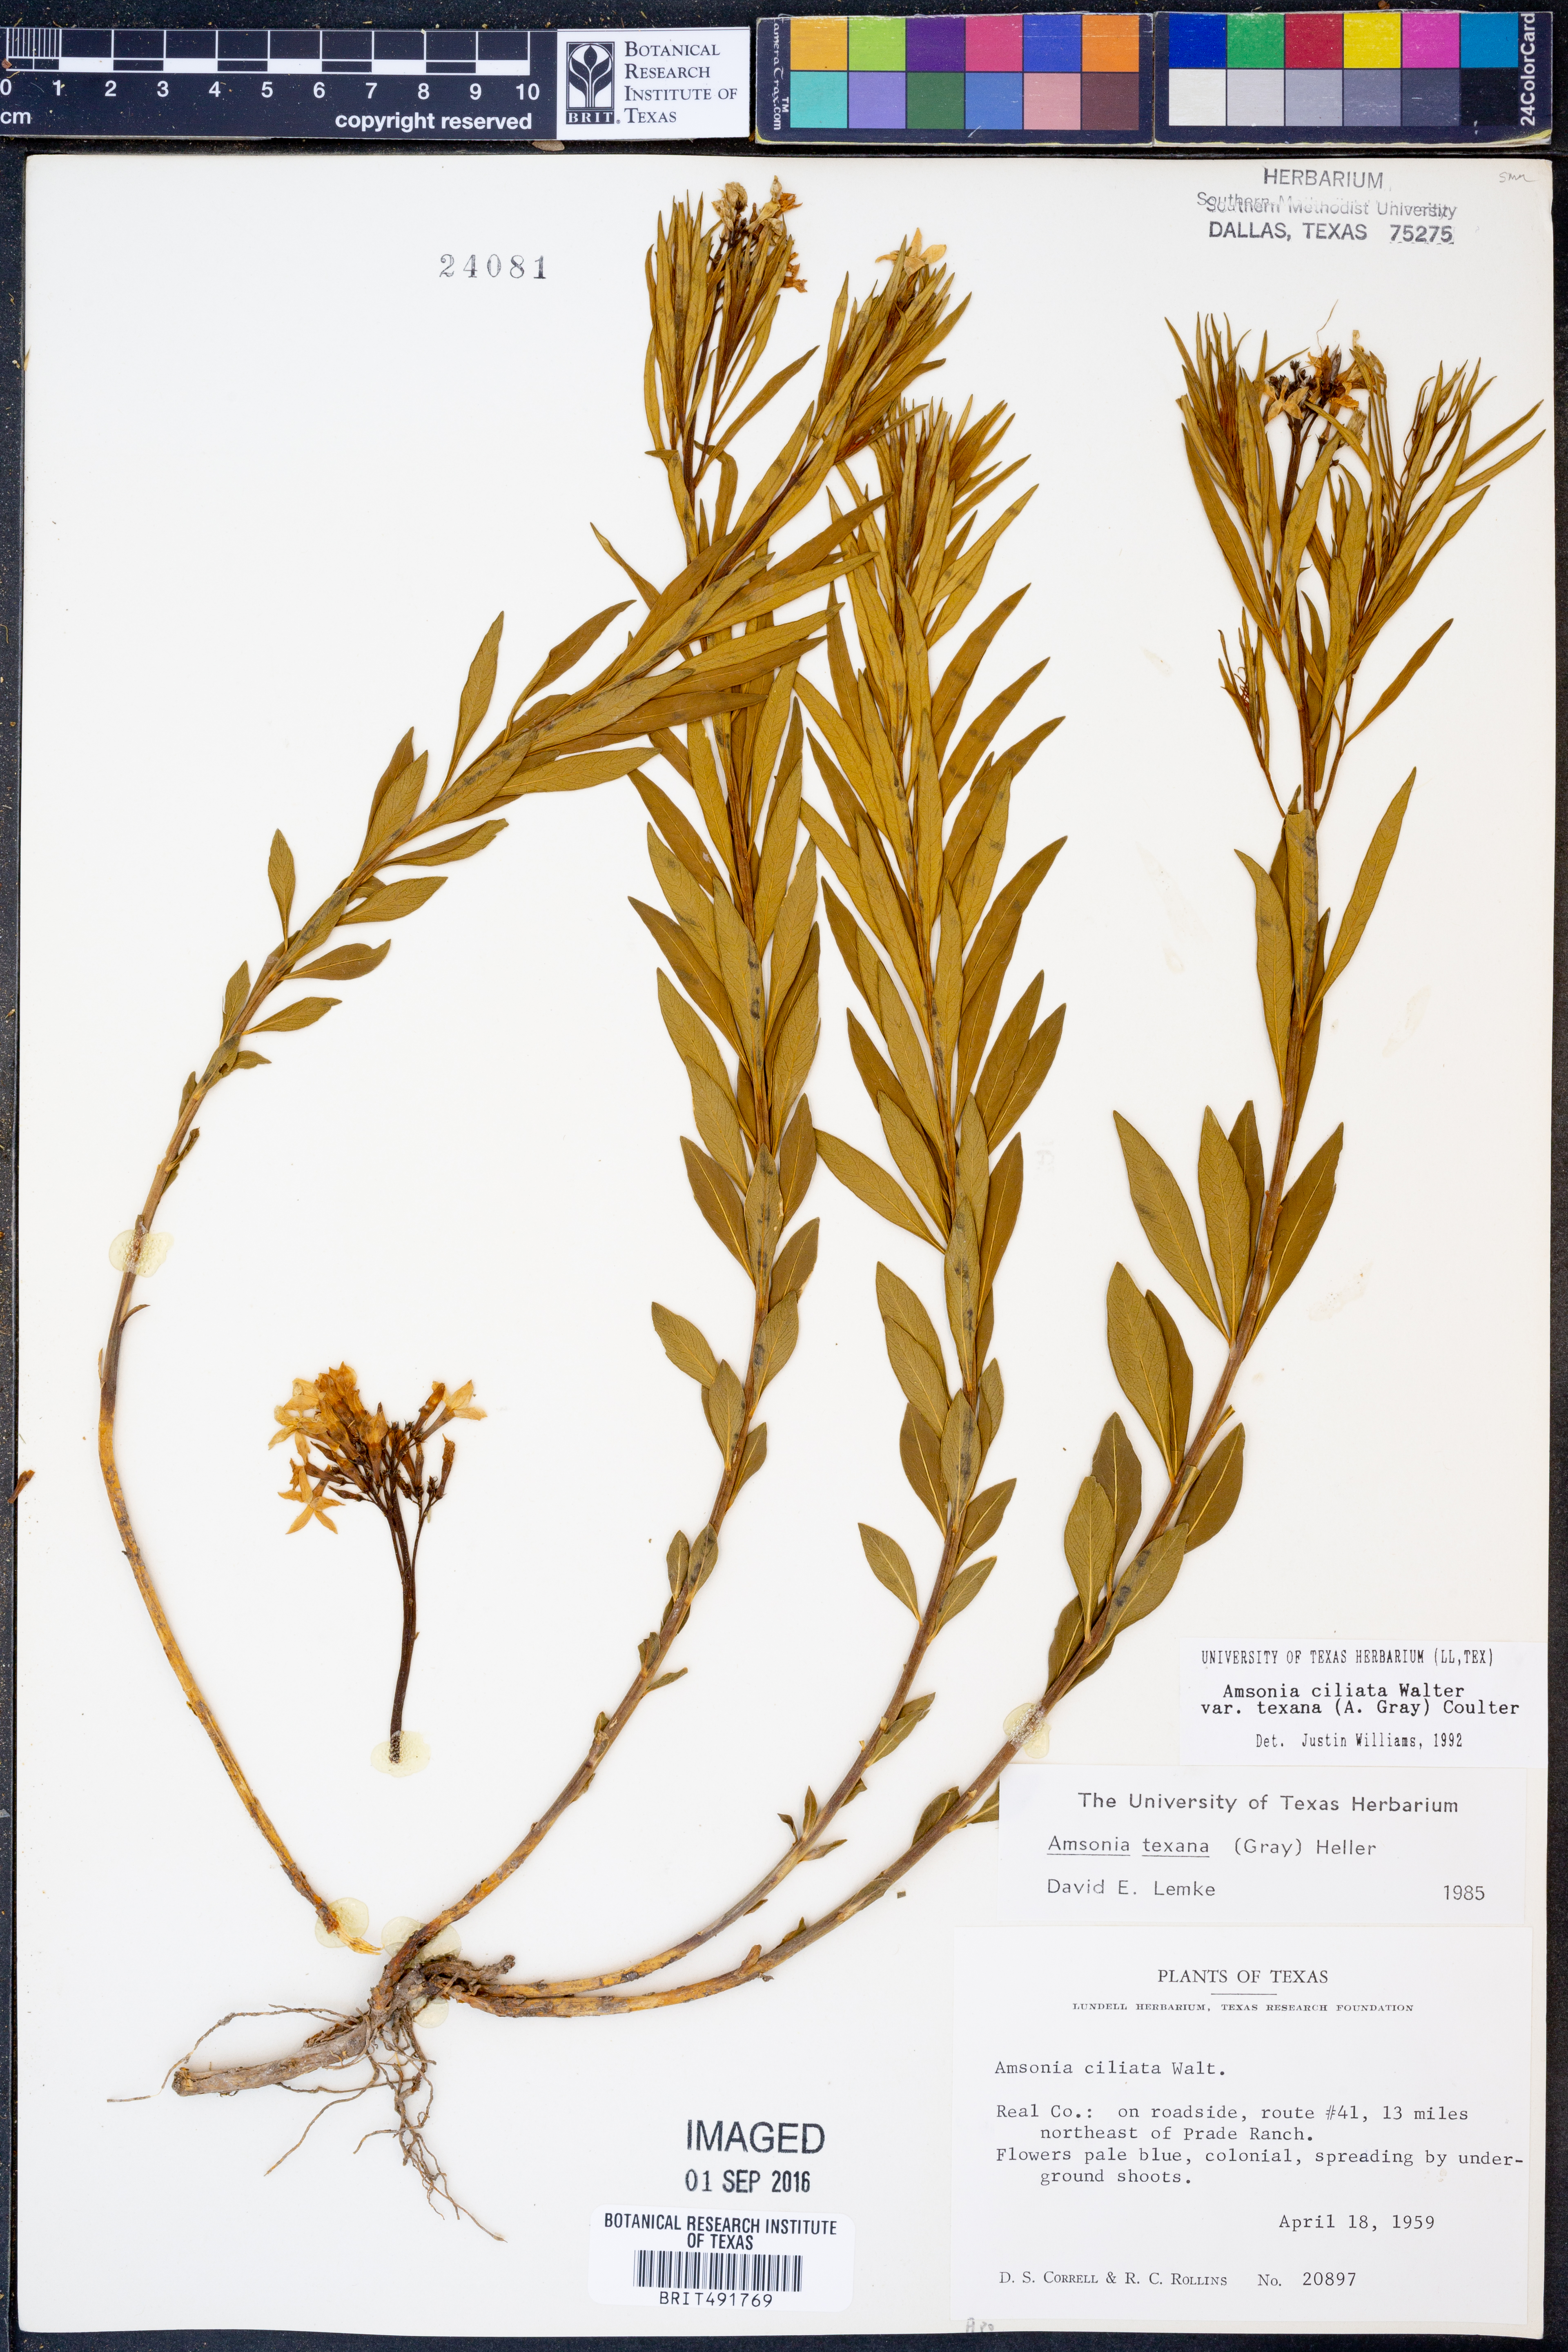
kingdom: Plantae
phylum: Tracheophyta
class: Magnoliopsida
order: Gentianales
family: Apocynaceae
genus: Amsonia
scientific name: Amsonia ciliata
